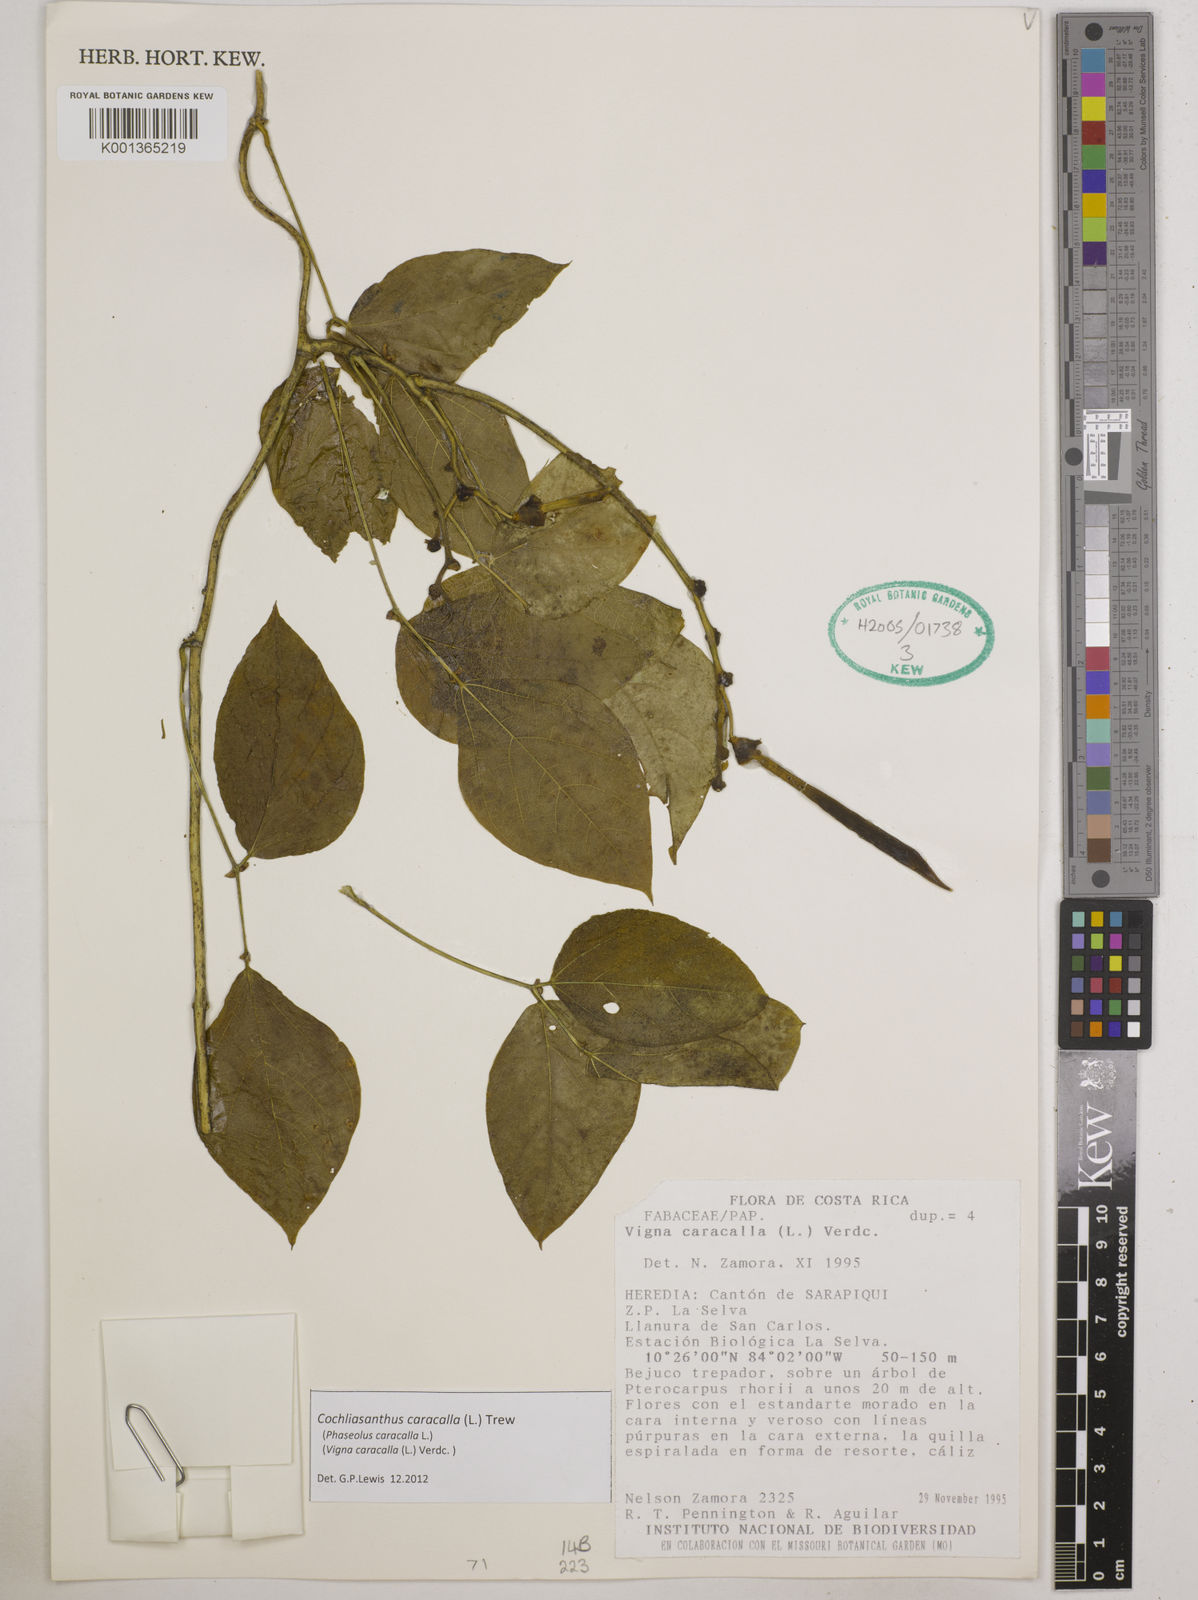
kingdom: Plantae
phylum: Tracheophyta
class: Magnoliopsida
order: Fabales
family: Fabaceae
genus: Cochliasanthus
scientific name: Cochliasanthus caracalla
